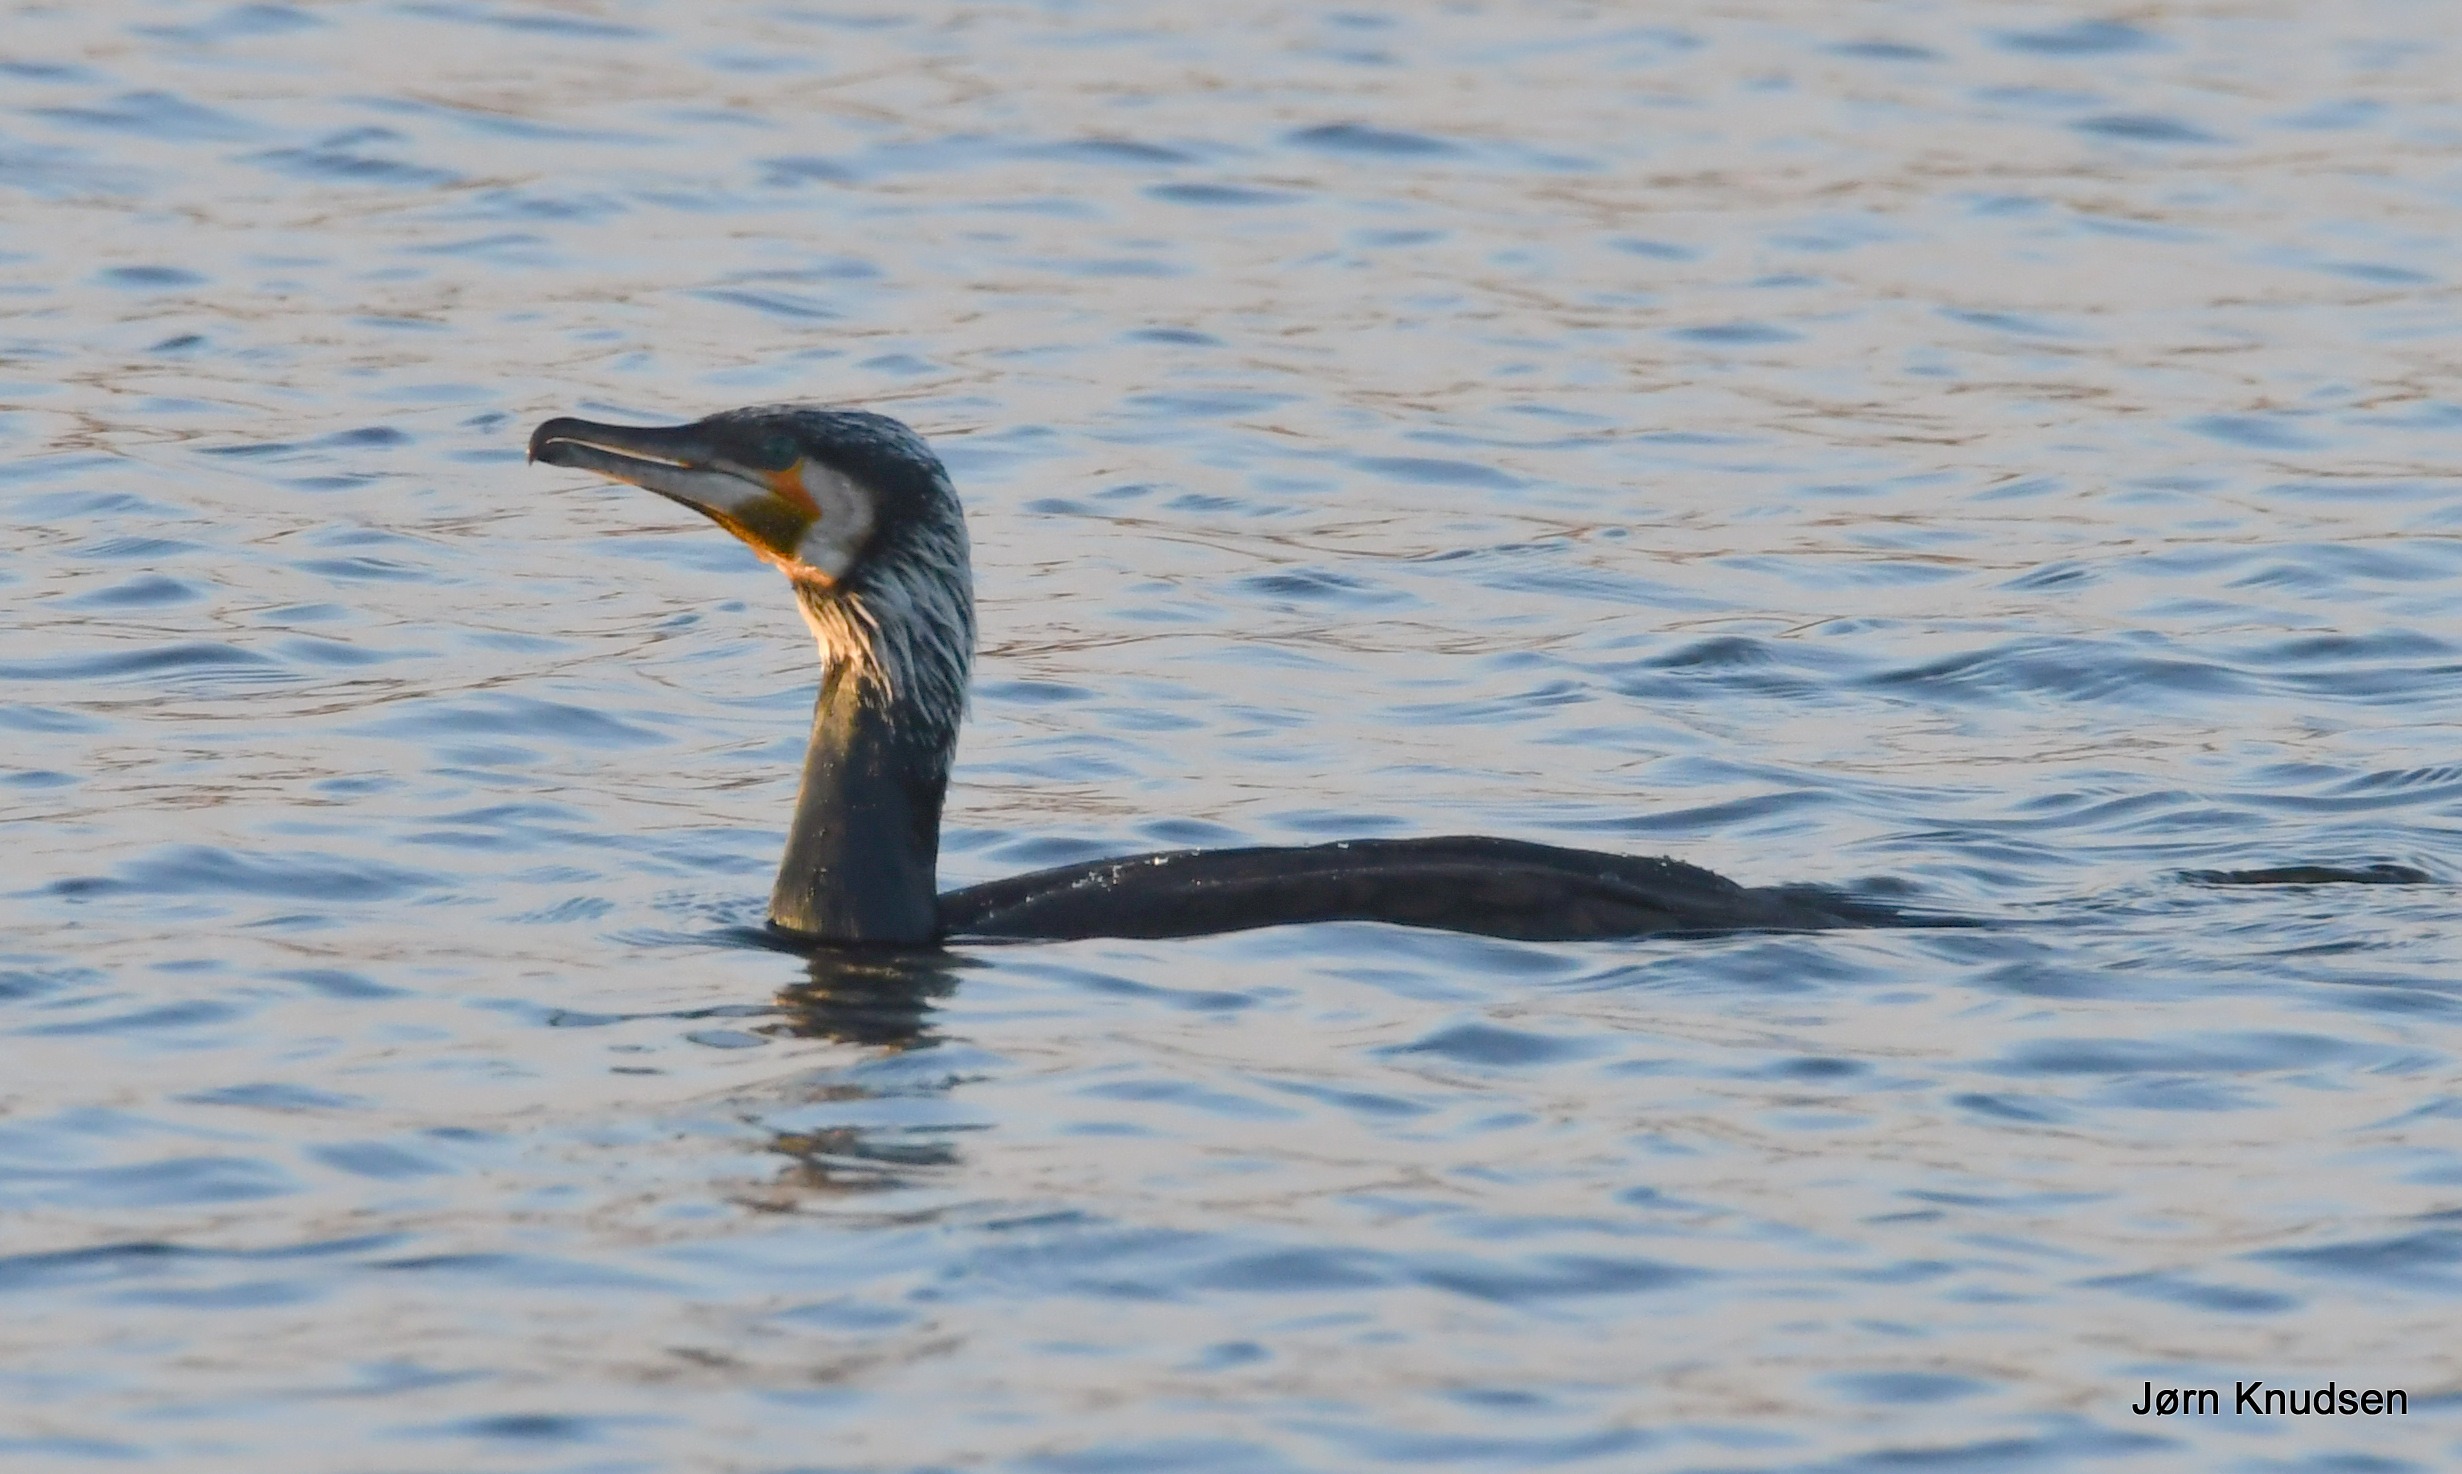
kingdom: Animalia
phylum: Chordata
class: Aves
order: Suliformes
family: Phalacrocoracidae
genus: Phalacrocorax
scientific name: Phalacrocorax carbo
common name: Mellemskarv
